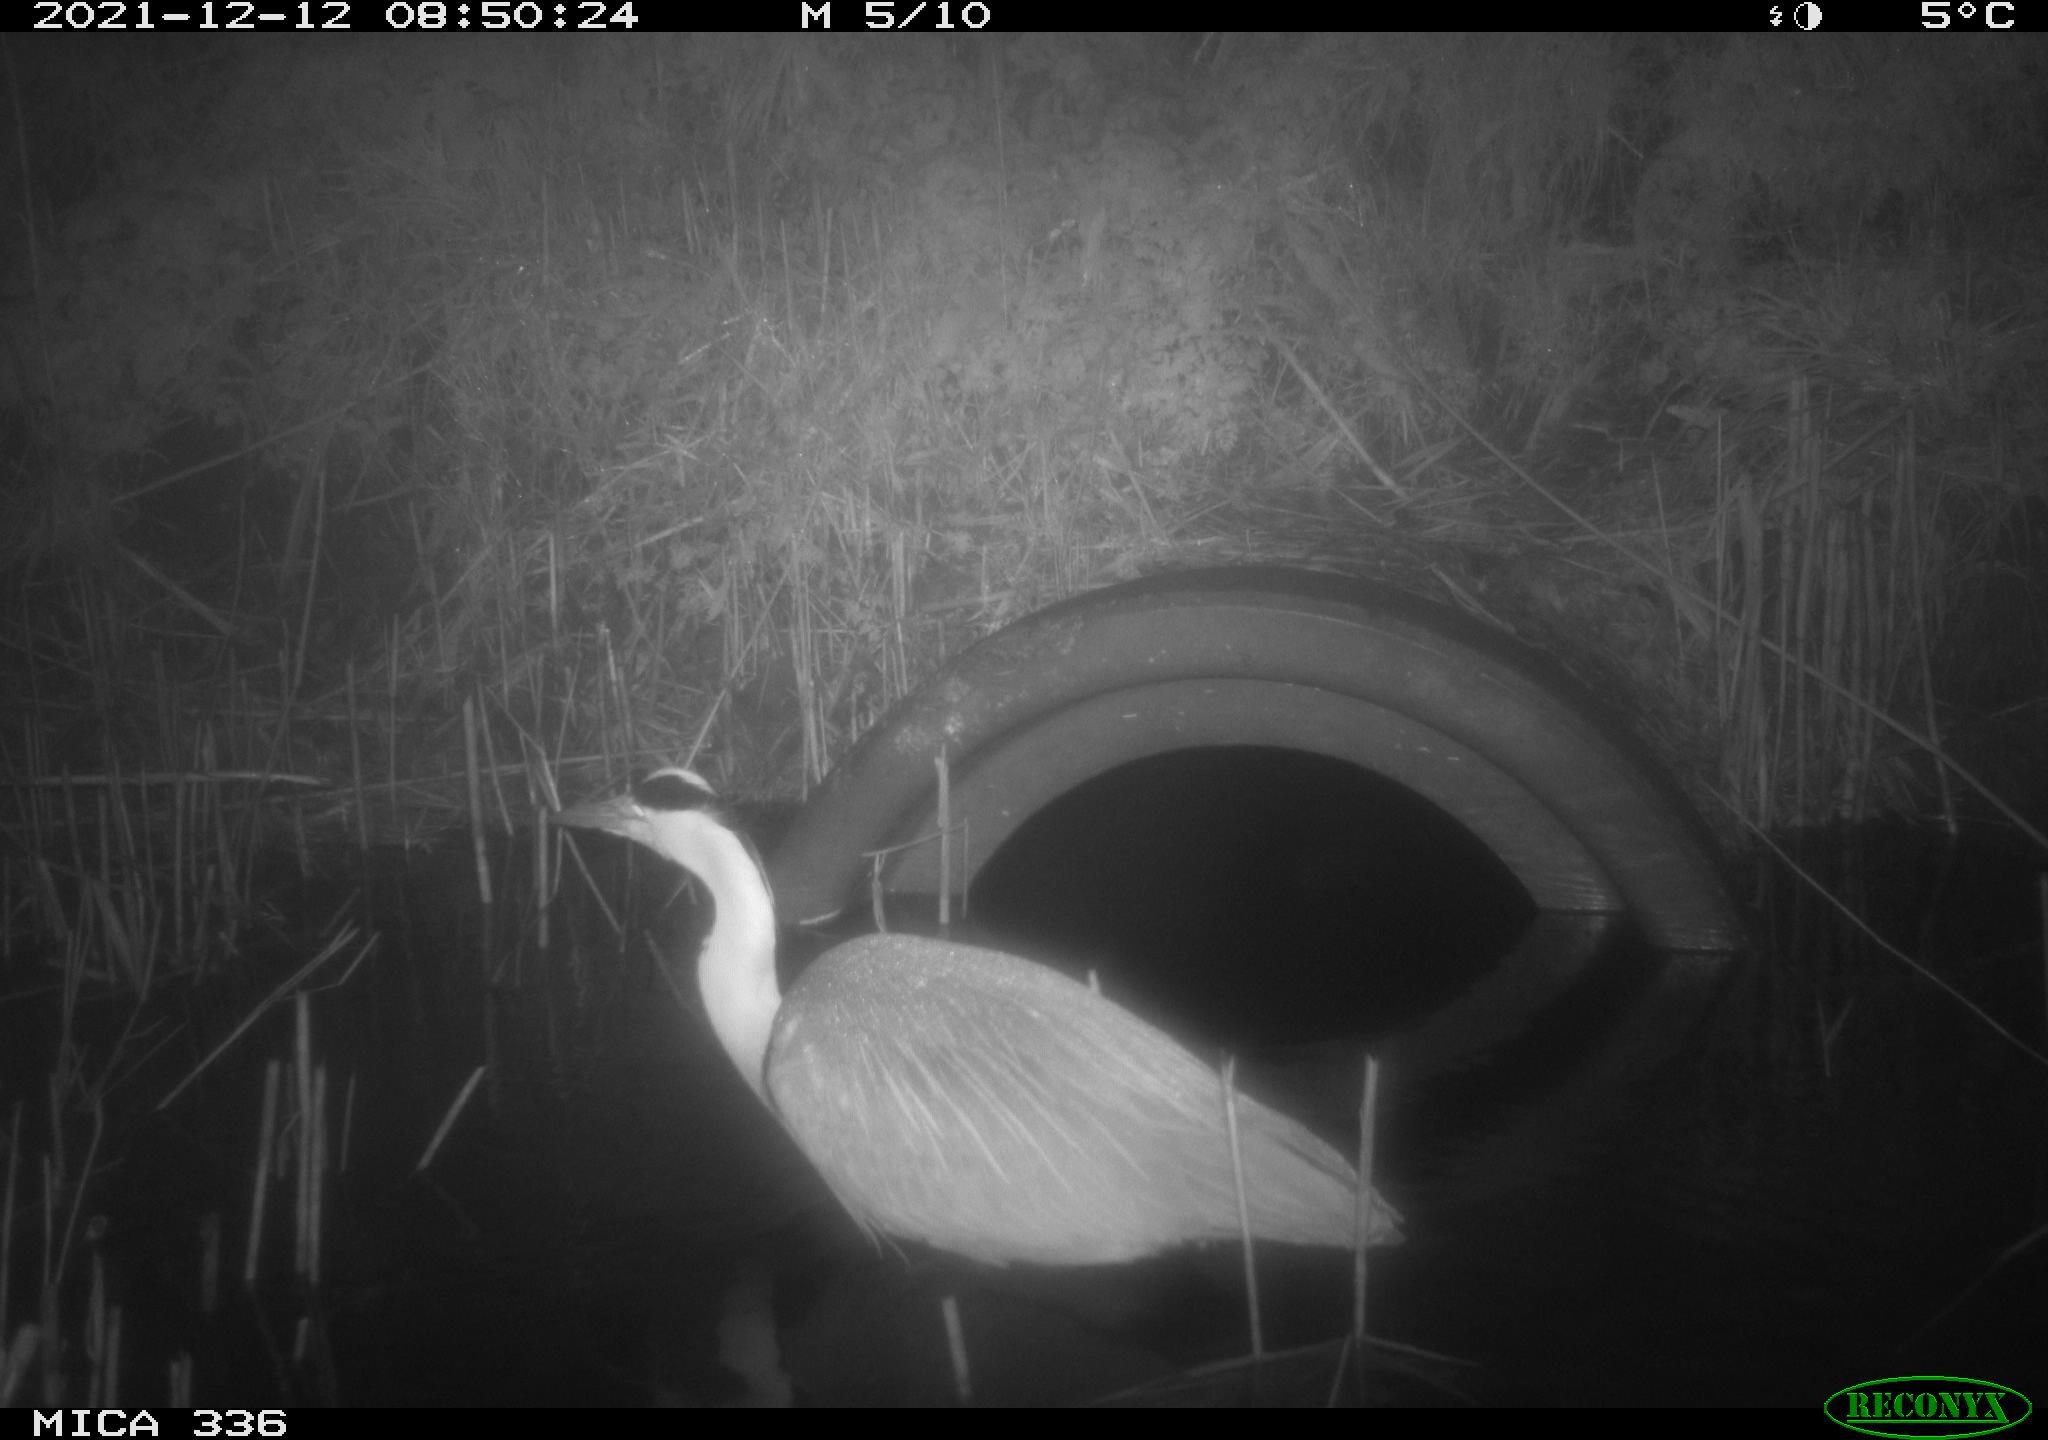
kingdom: Animalia
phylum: Chordata
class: Aves
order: Pelecaniformes
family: Ardeidae
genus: Ardea
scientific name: Ardea cinerea
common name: Grey heron
